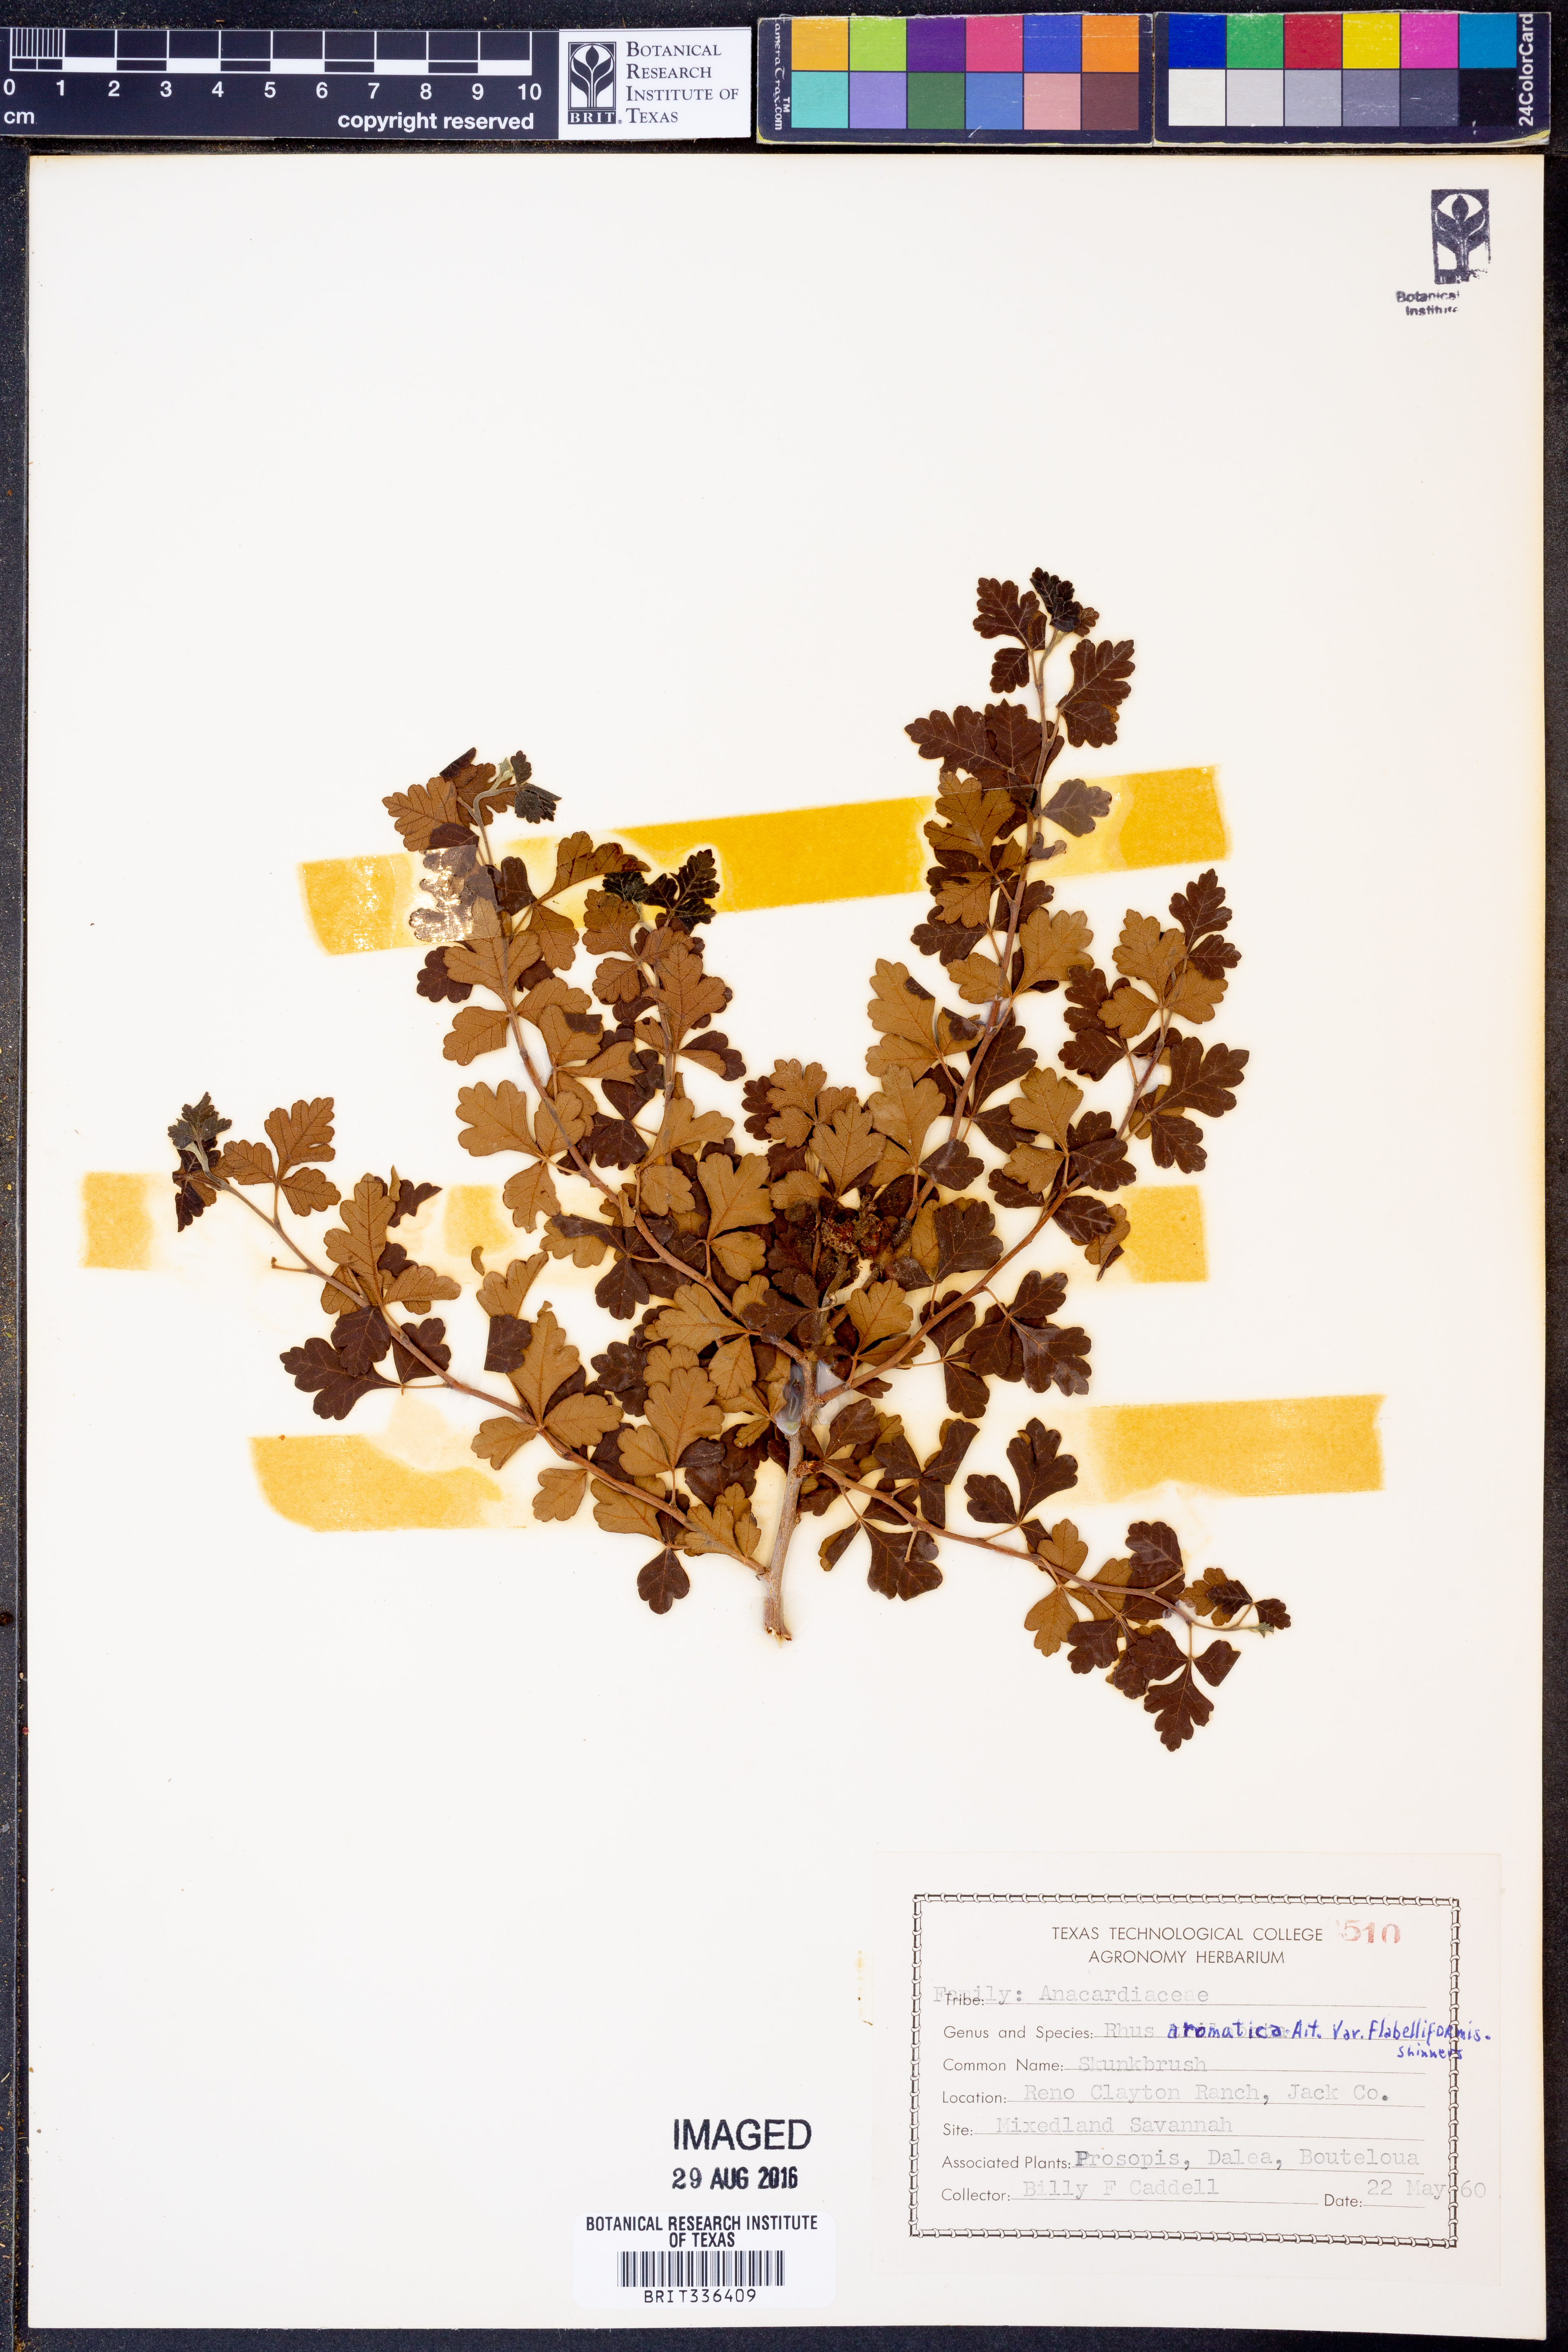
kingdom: Plantae
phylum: Tracheophyta
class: Magnoliopsida
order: Sapindales
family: Anacardiaceae
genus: Rhus
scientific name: Rhus trilobata
